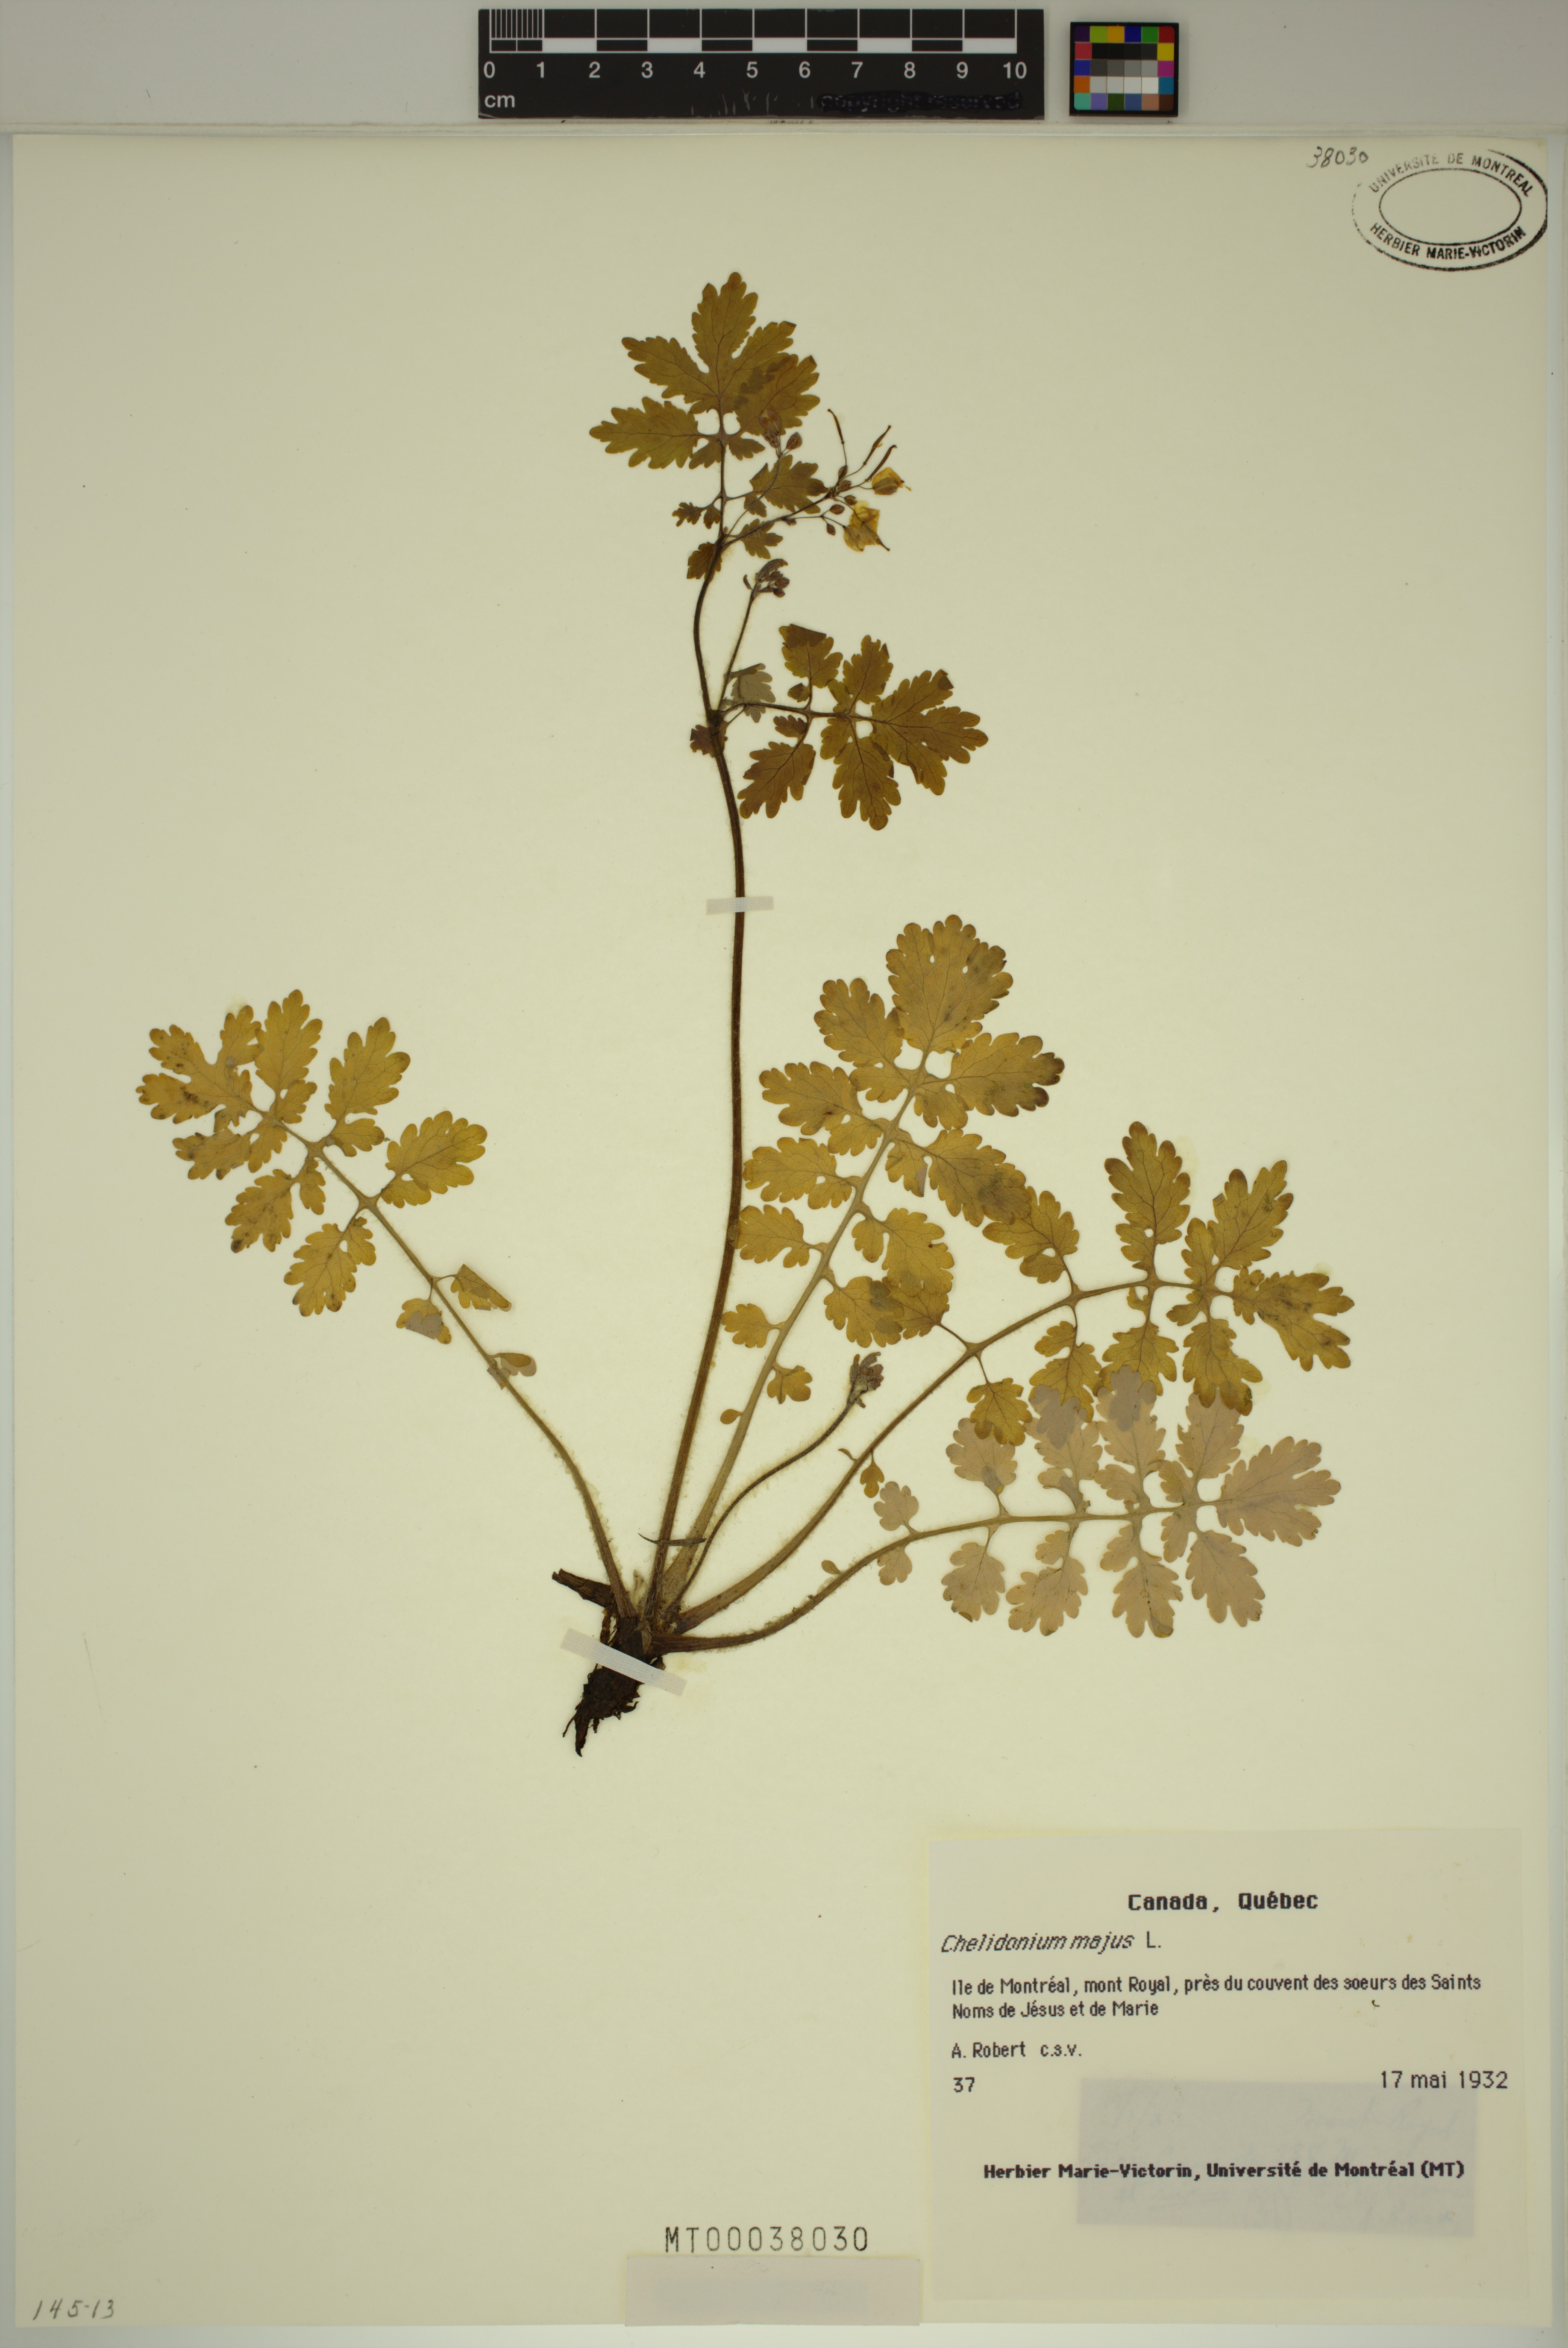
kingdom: Plantae
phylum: Tracheophyta
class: Magnoliopsida
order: Ranunculales
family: Papaveraceae
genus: Chelidonium
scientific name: Chelidonium majus
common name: Greater celandine
